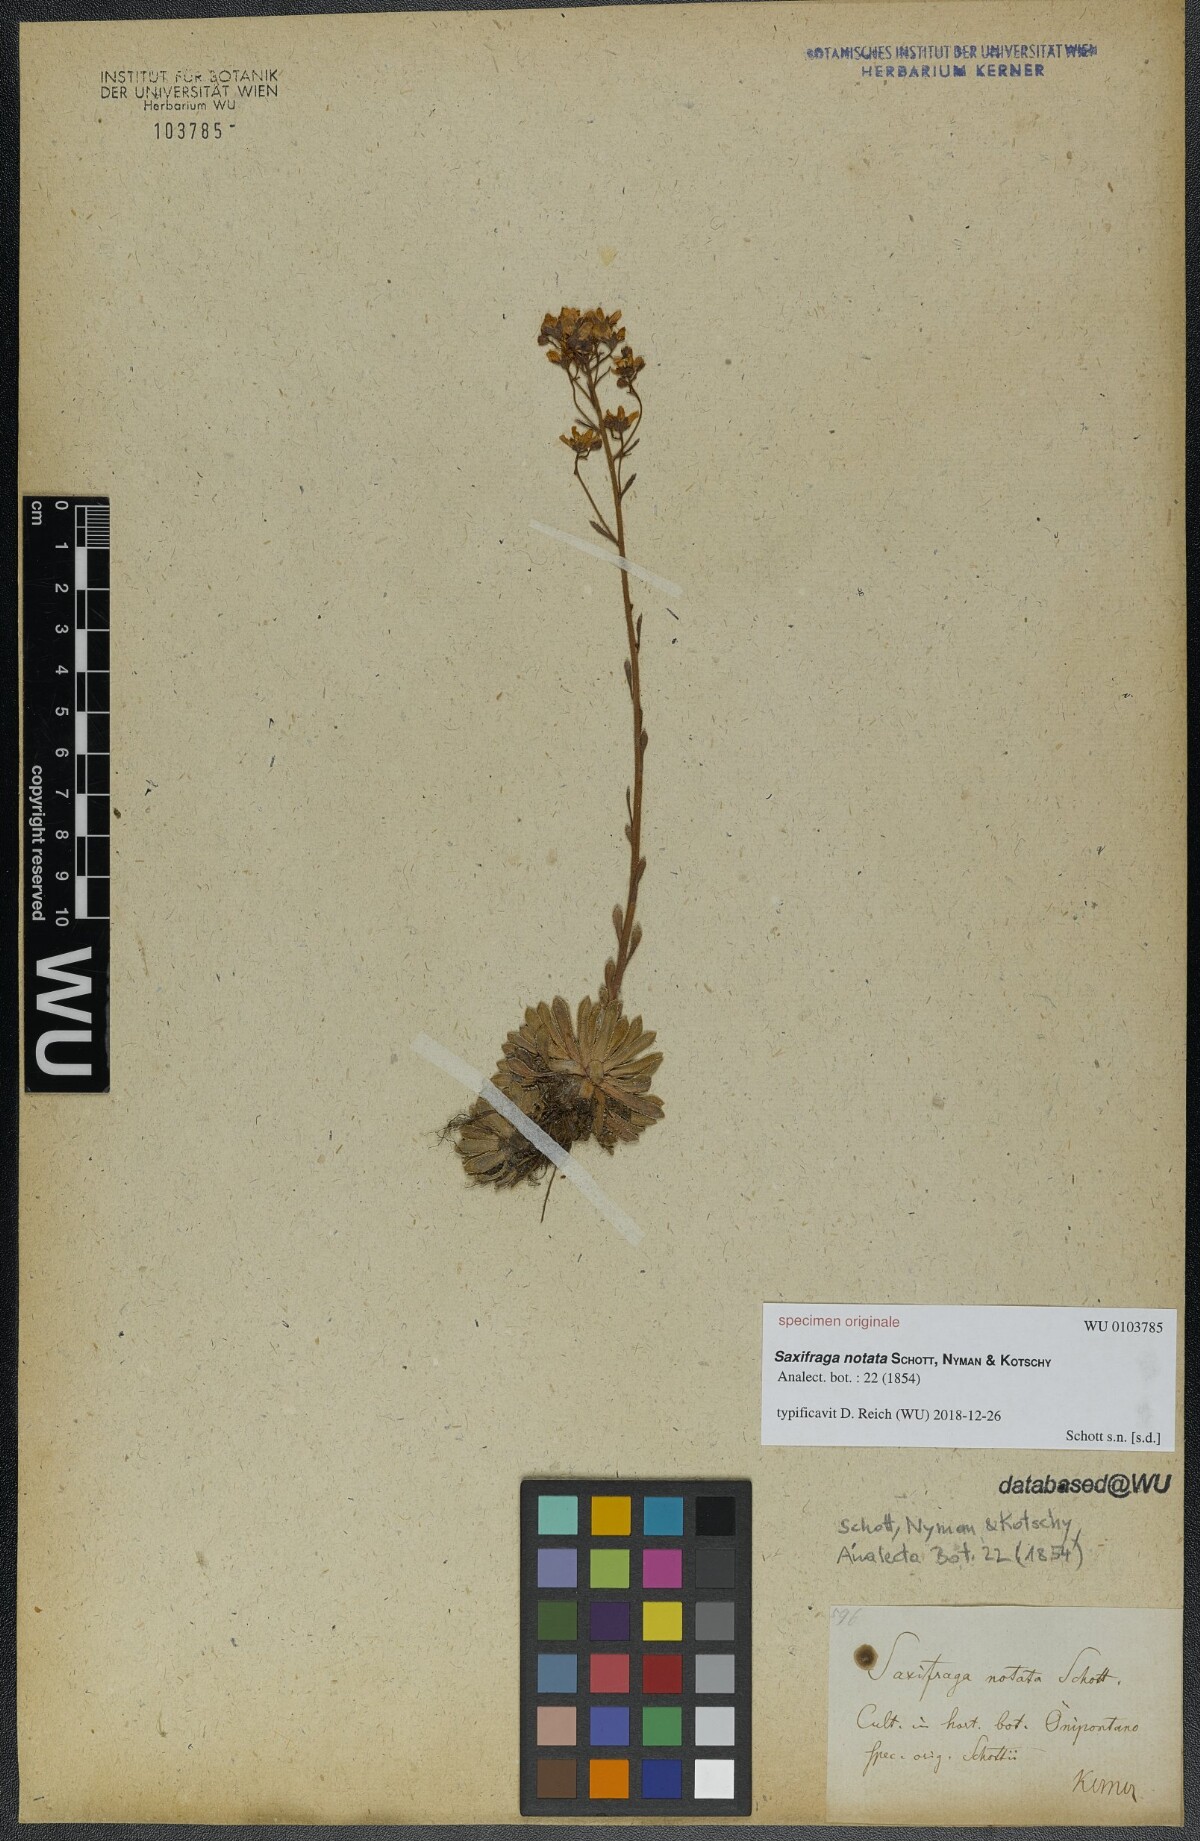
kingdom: Plantae
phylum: Tracheophyta
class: Magnoliopsida
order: Saxifragales
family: Saxifragaceae
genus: Saxifraga
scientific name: Saxifraga paniculata
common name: Livelong saxifrage
